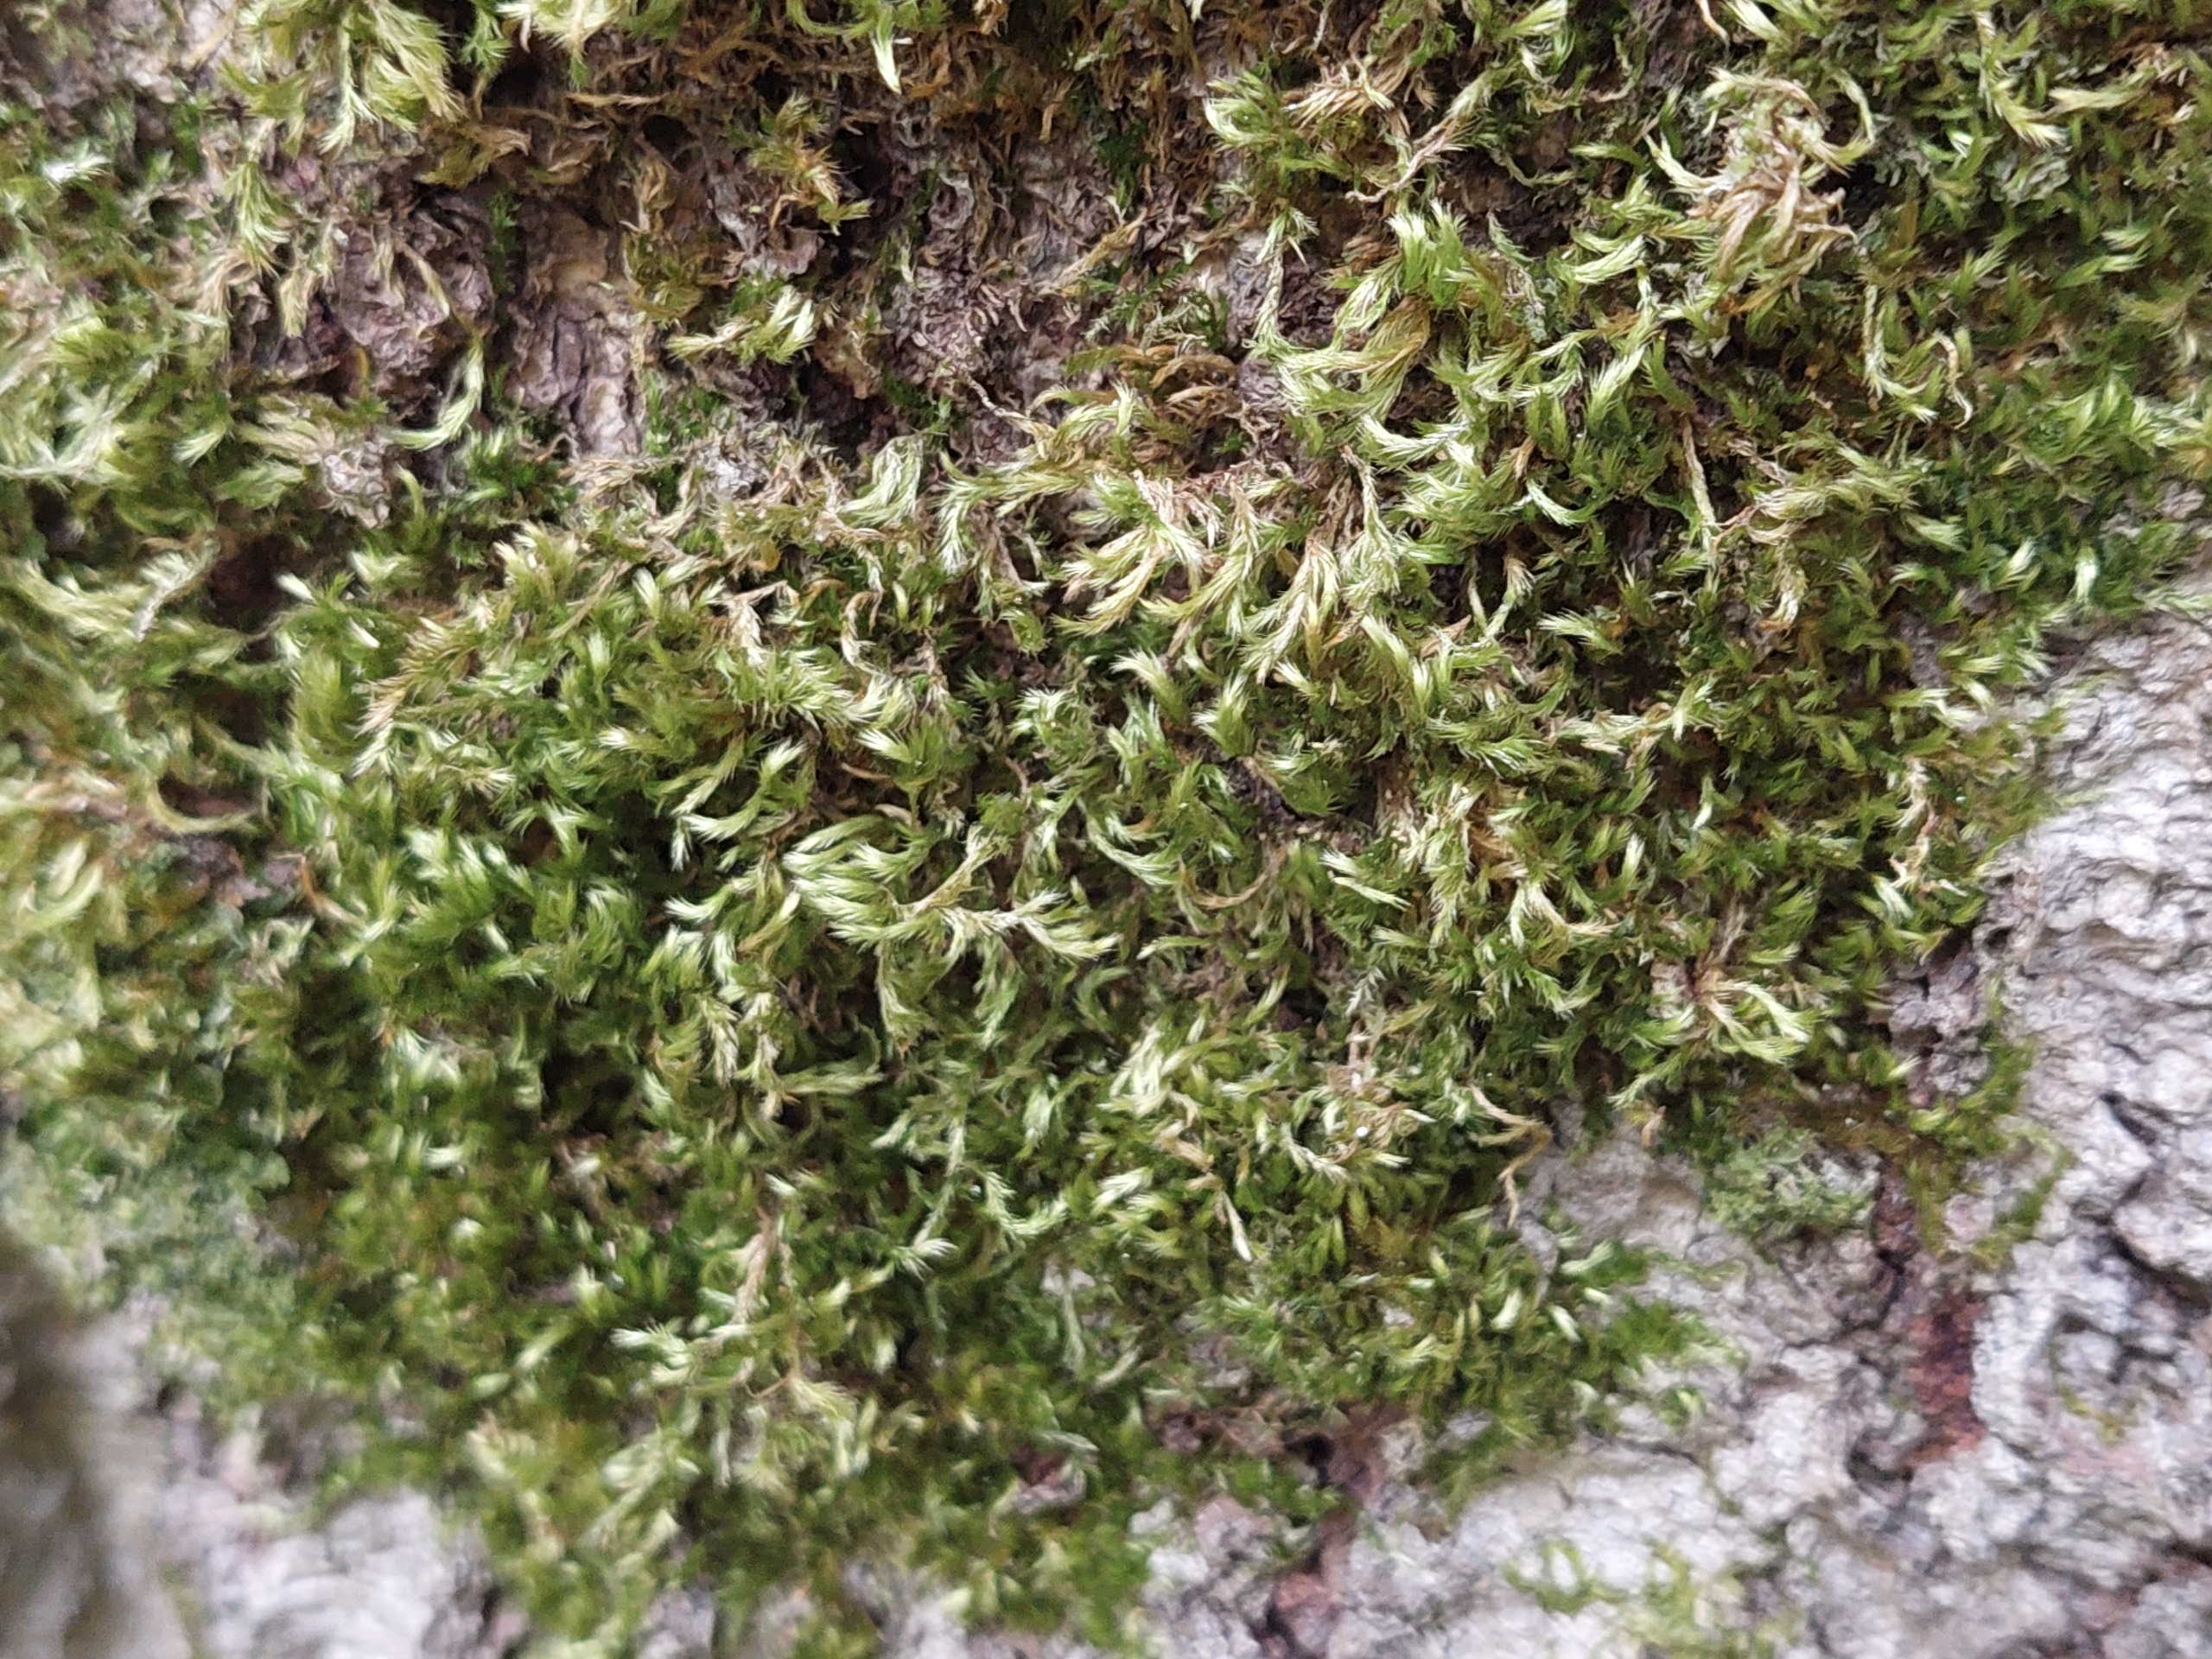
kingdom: Plantae
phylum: Bryophyta
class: Bryopsida
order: Hypnales
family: Brachytheciaceae
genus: Homalothecium
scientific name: Homalothecium sericeum
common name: Krybende silkemos
